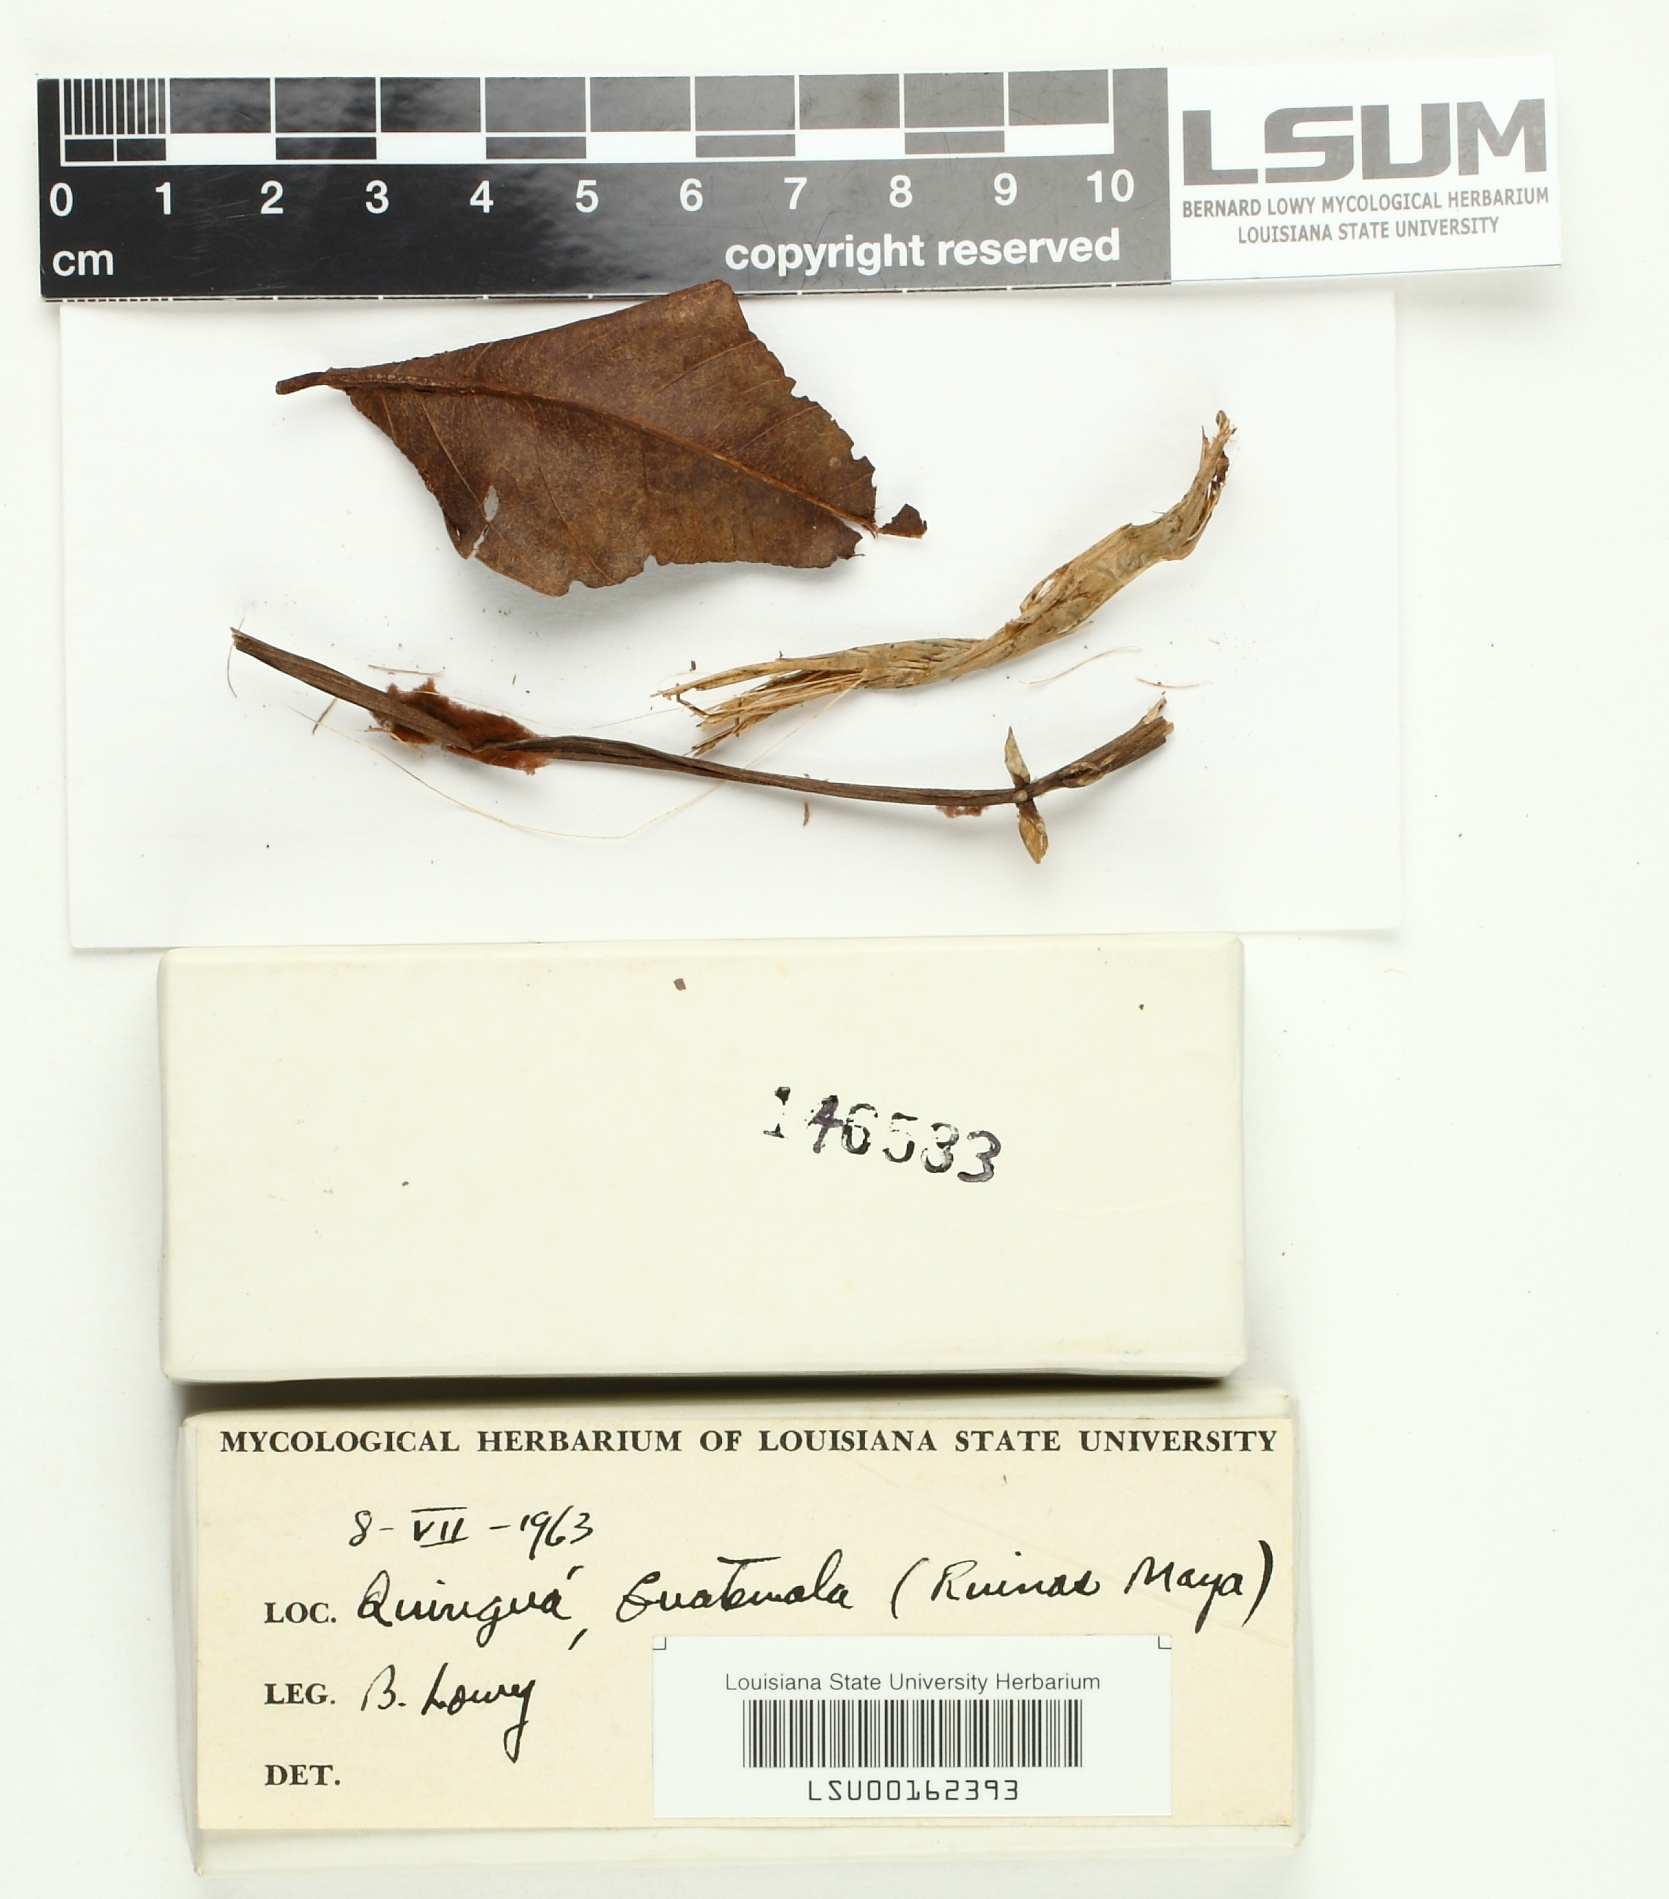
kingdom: Fungi
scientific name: Fungi
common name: Fungi
